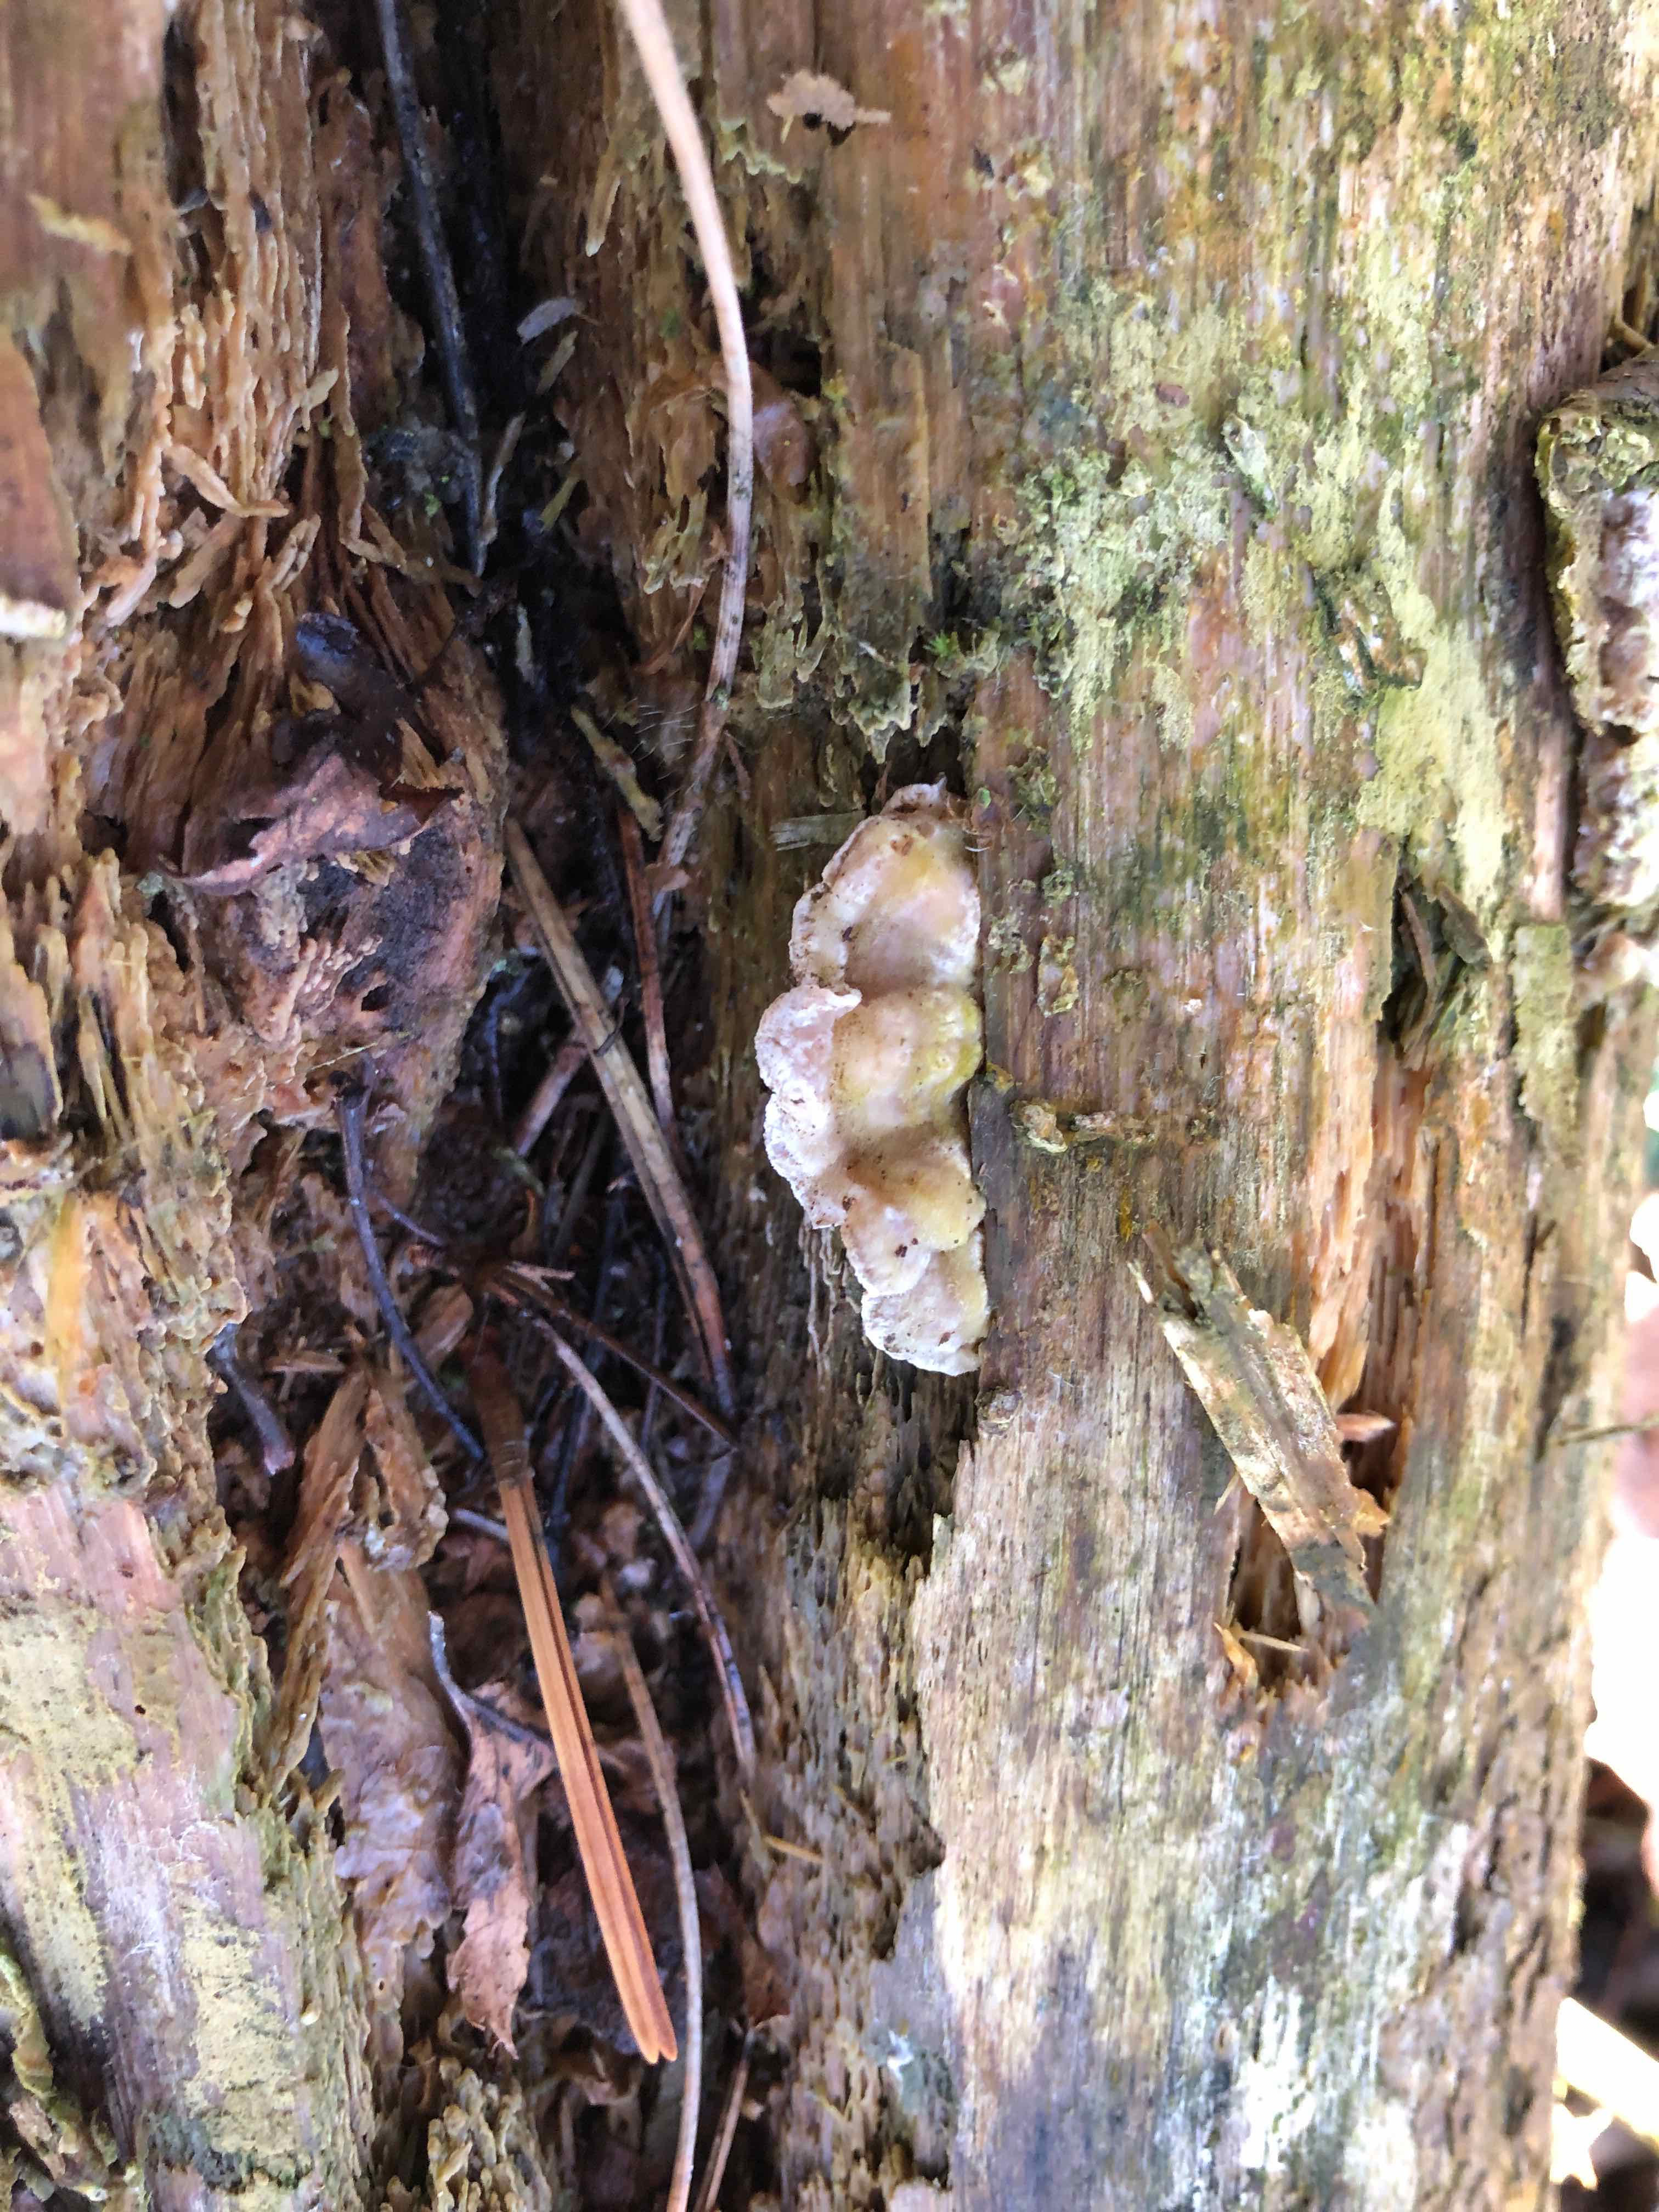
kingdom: Fungi
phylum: Basidiomycota
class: Agaricomycetes
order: Polyporales
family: Incrustoporiaceae
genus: Skeletocutis
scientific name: Skeletocutis amorpha
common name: orange krystalporesvamp
